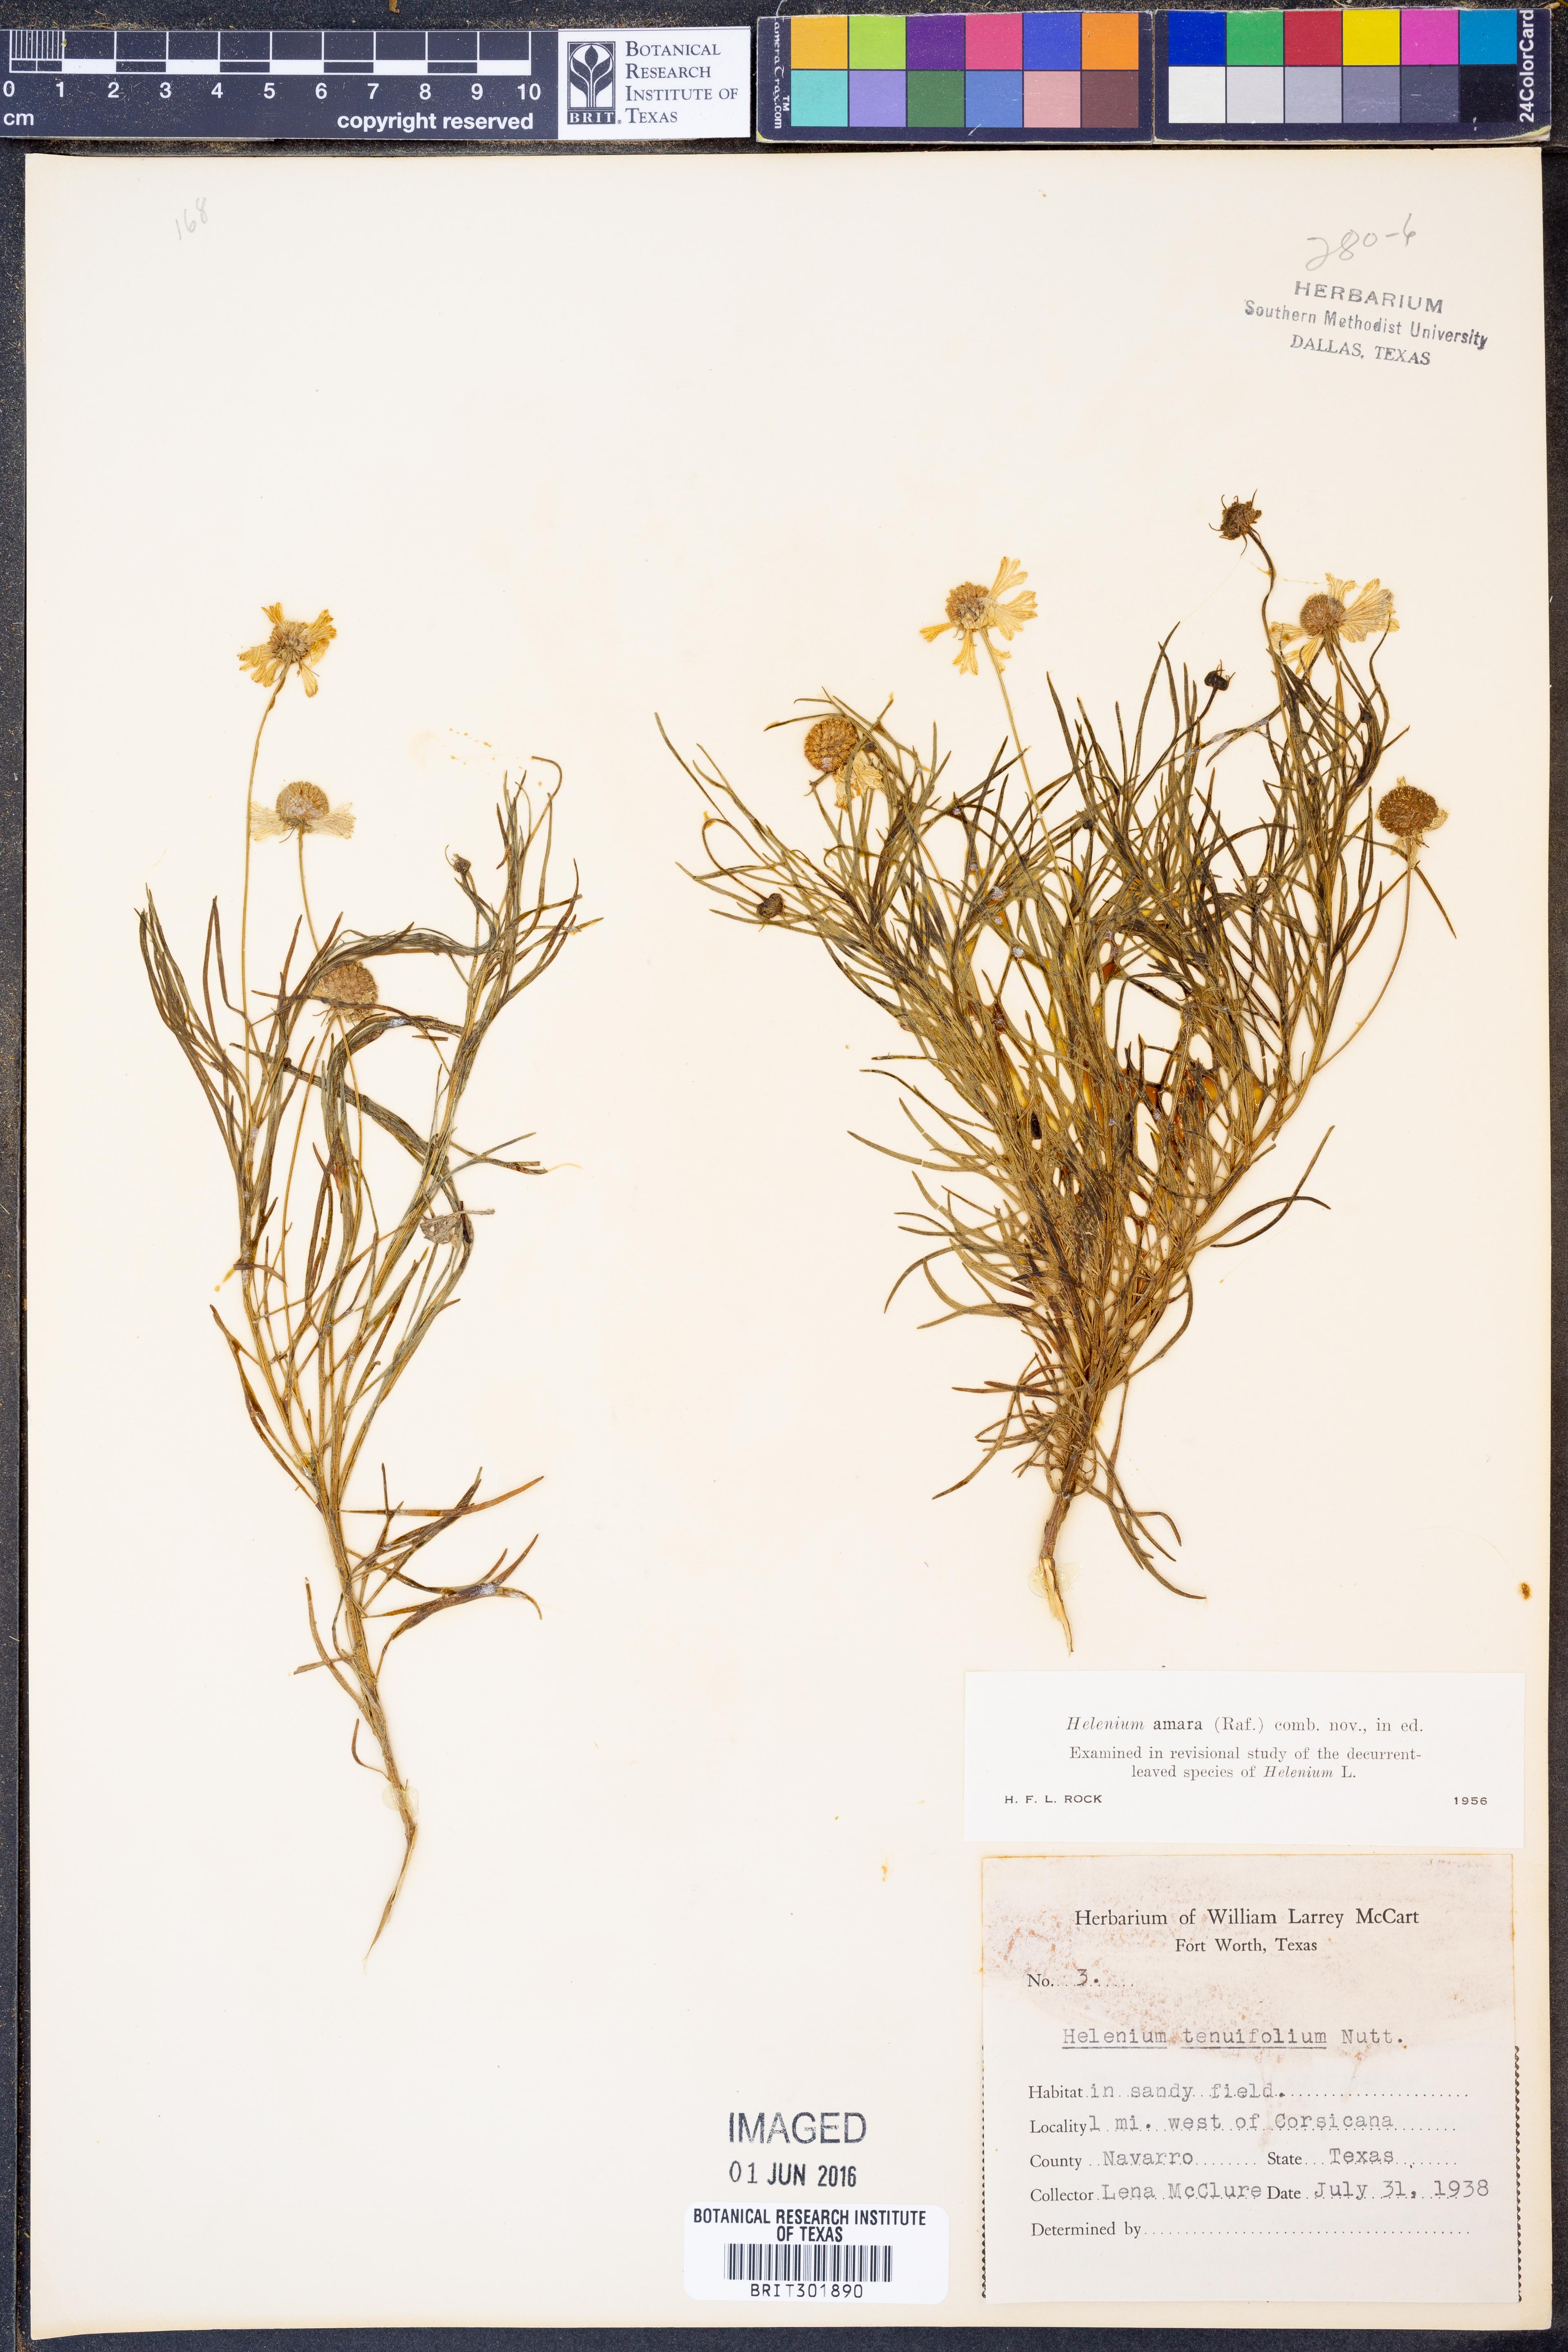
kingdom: Plantae
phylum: Tracheophyta
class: Magnoliopsida
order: Asterales
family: Asteraceae
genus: Helenium
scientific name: Helenium amarum
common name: Bitter sneezeweed
